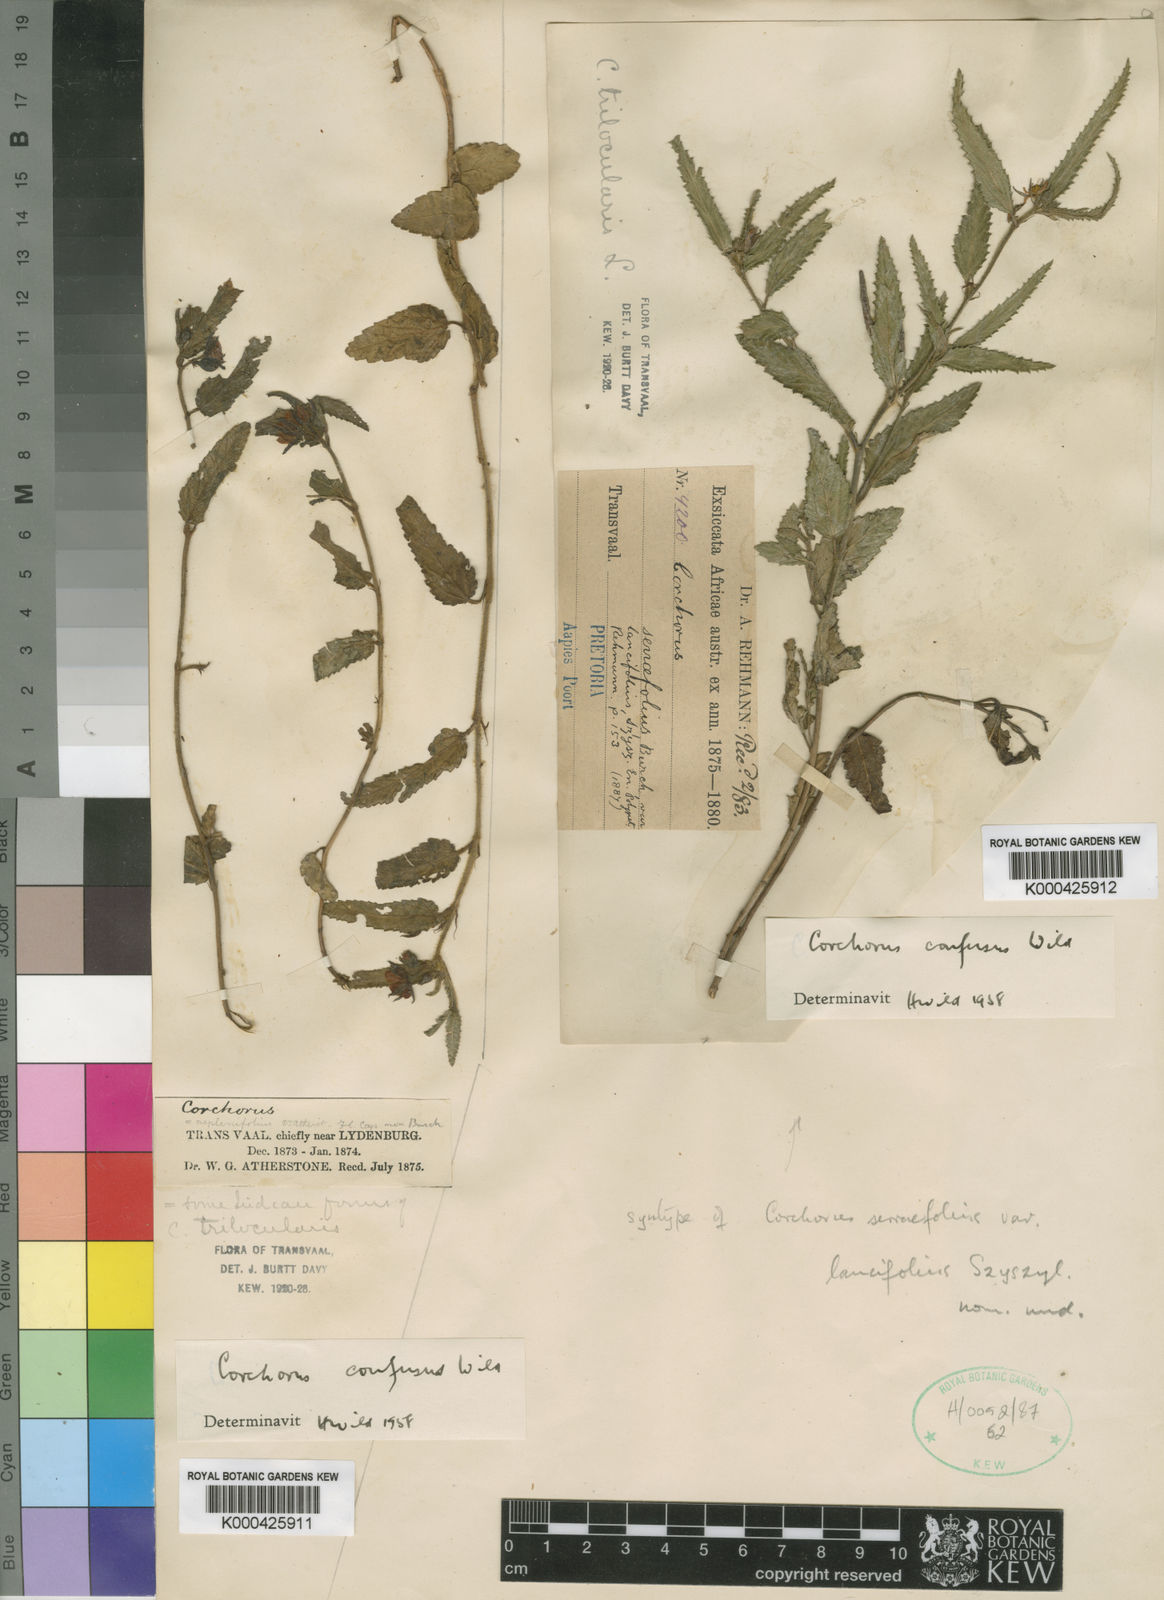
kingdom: Plantae
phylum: Tracheophyta
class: Magnoliopsida
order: Malvales
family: Malvaceae
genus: Corchorus
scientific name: Corchorus confusus
